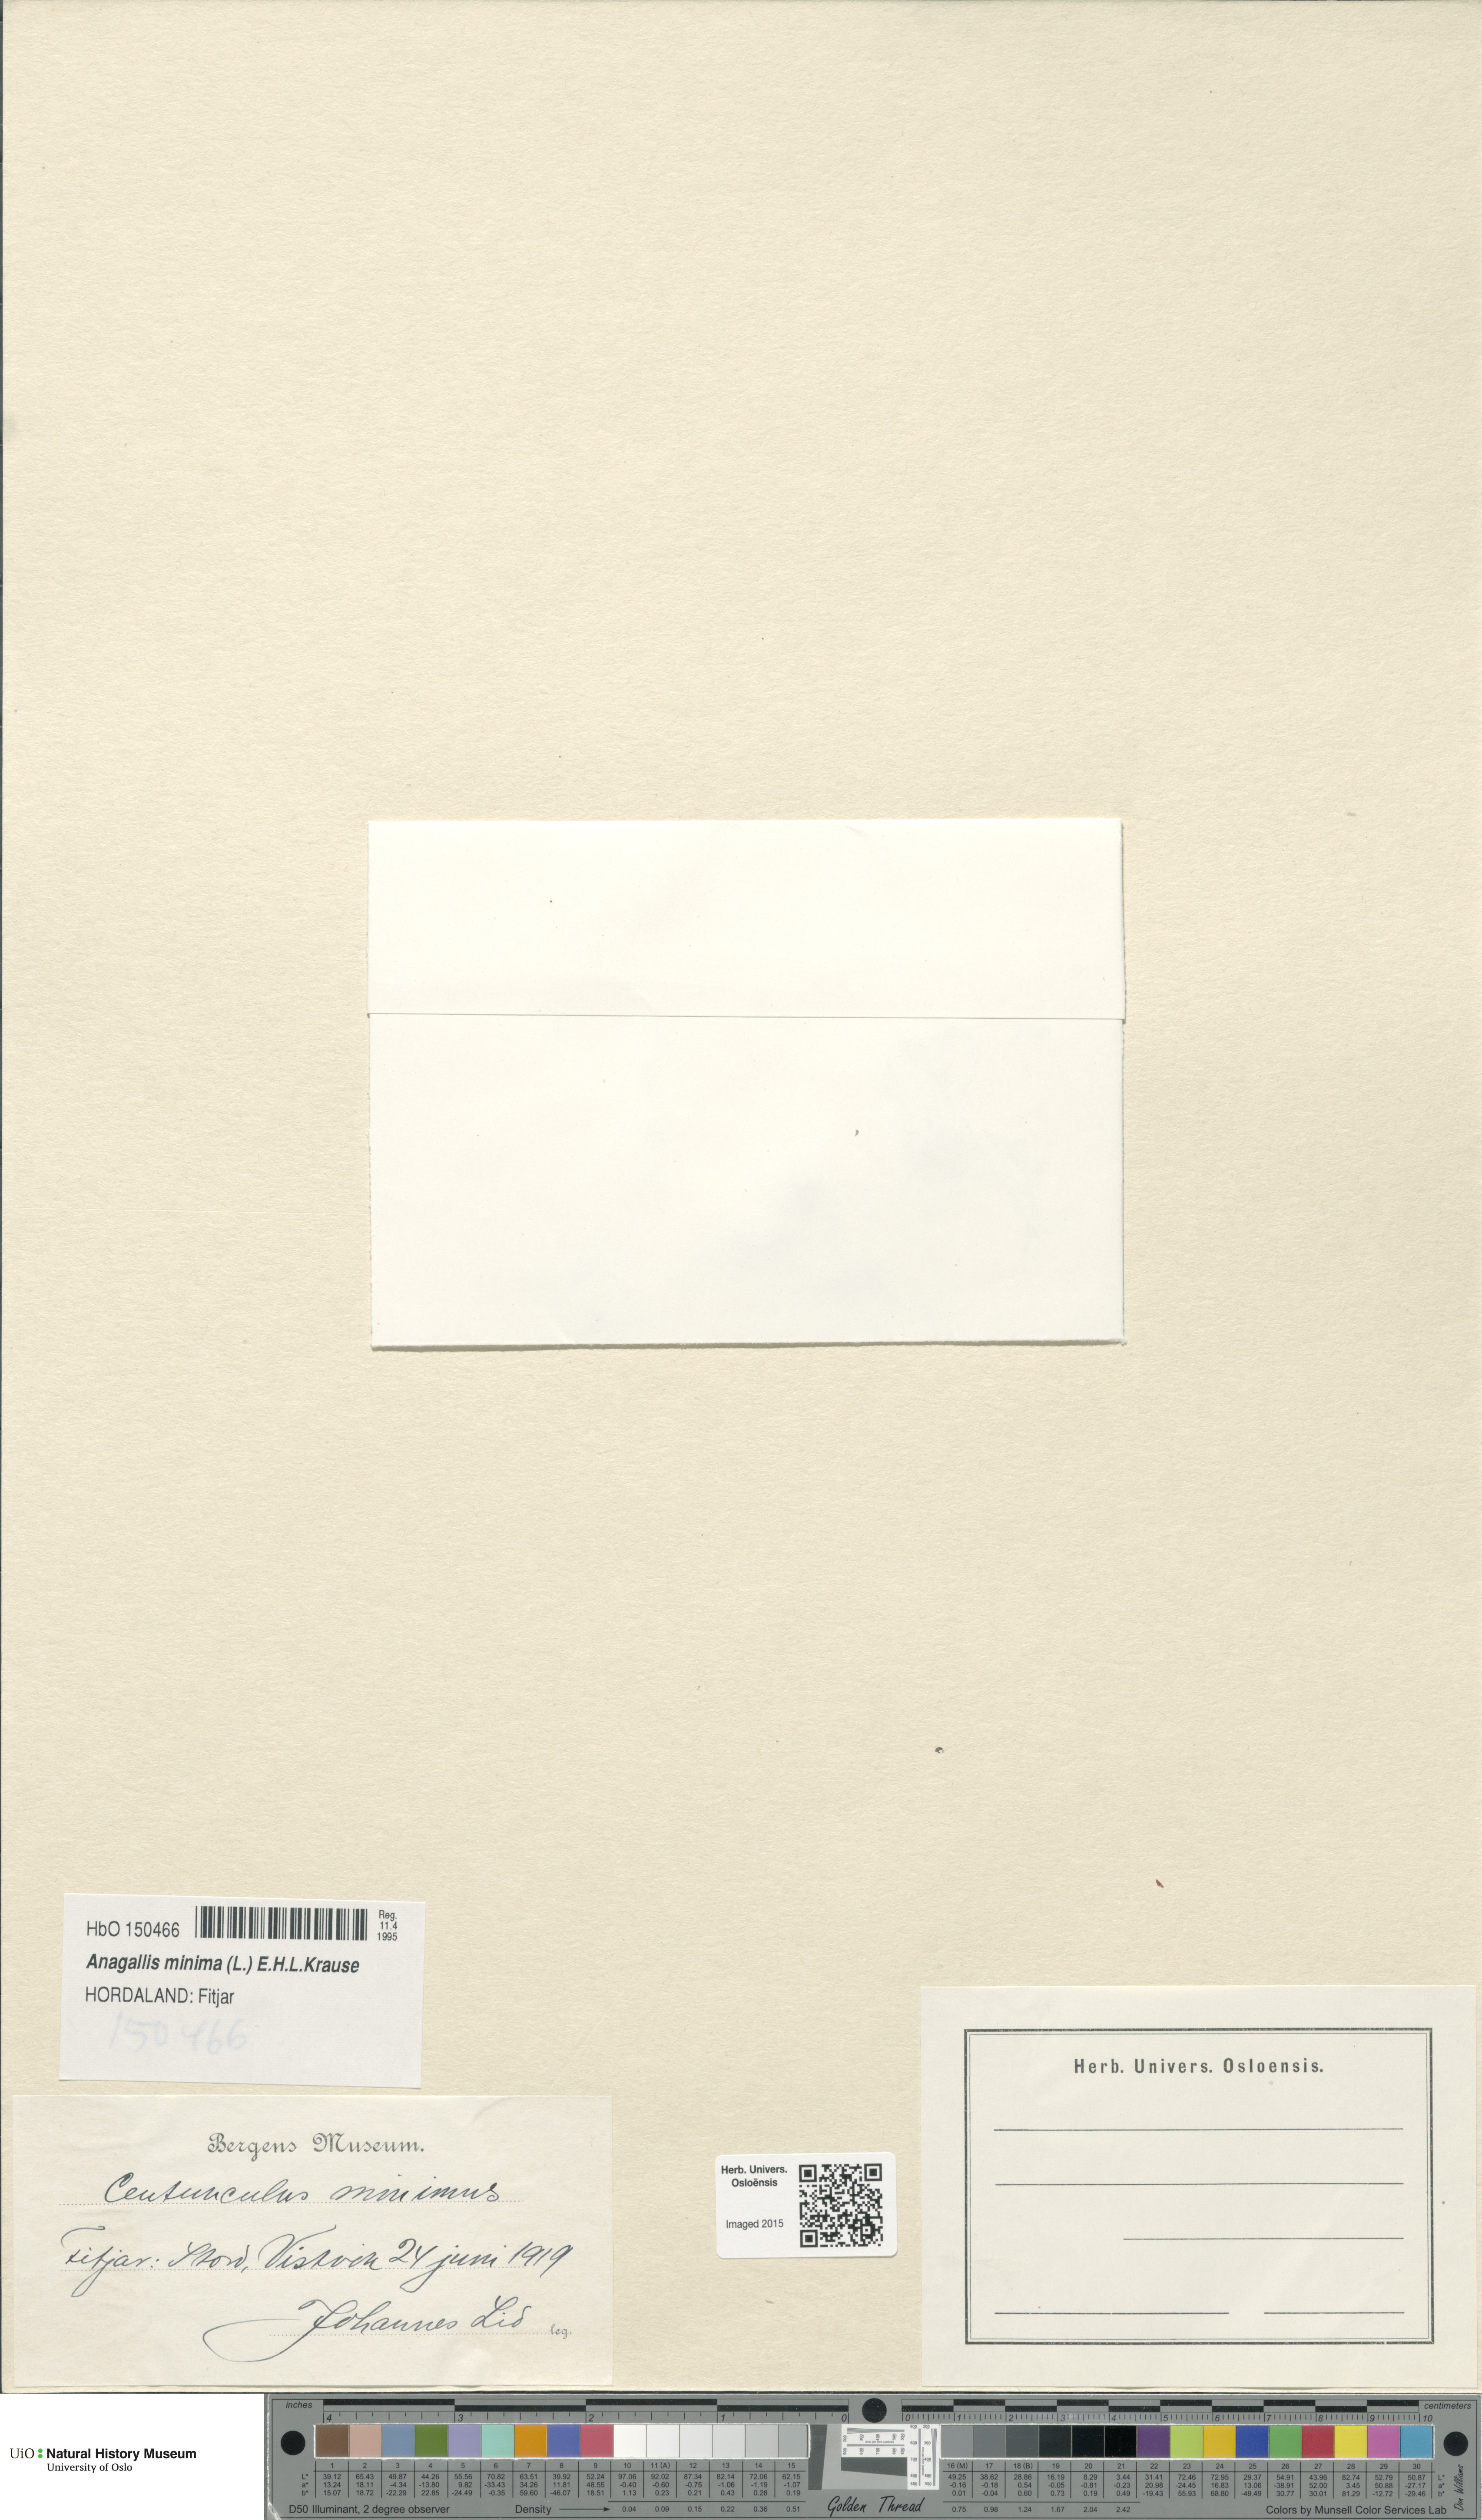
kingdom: Plantae
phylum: Tracheophyta
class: Magnoliopsida
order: Ericales
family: Primulaceae
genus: Lysimachia
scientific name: Lysimachia minima
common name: Chaffweed
